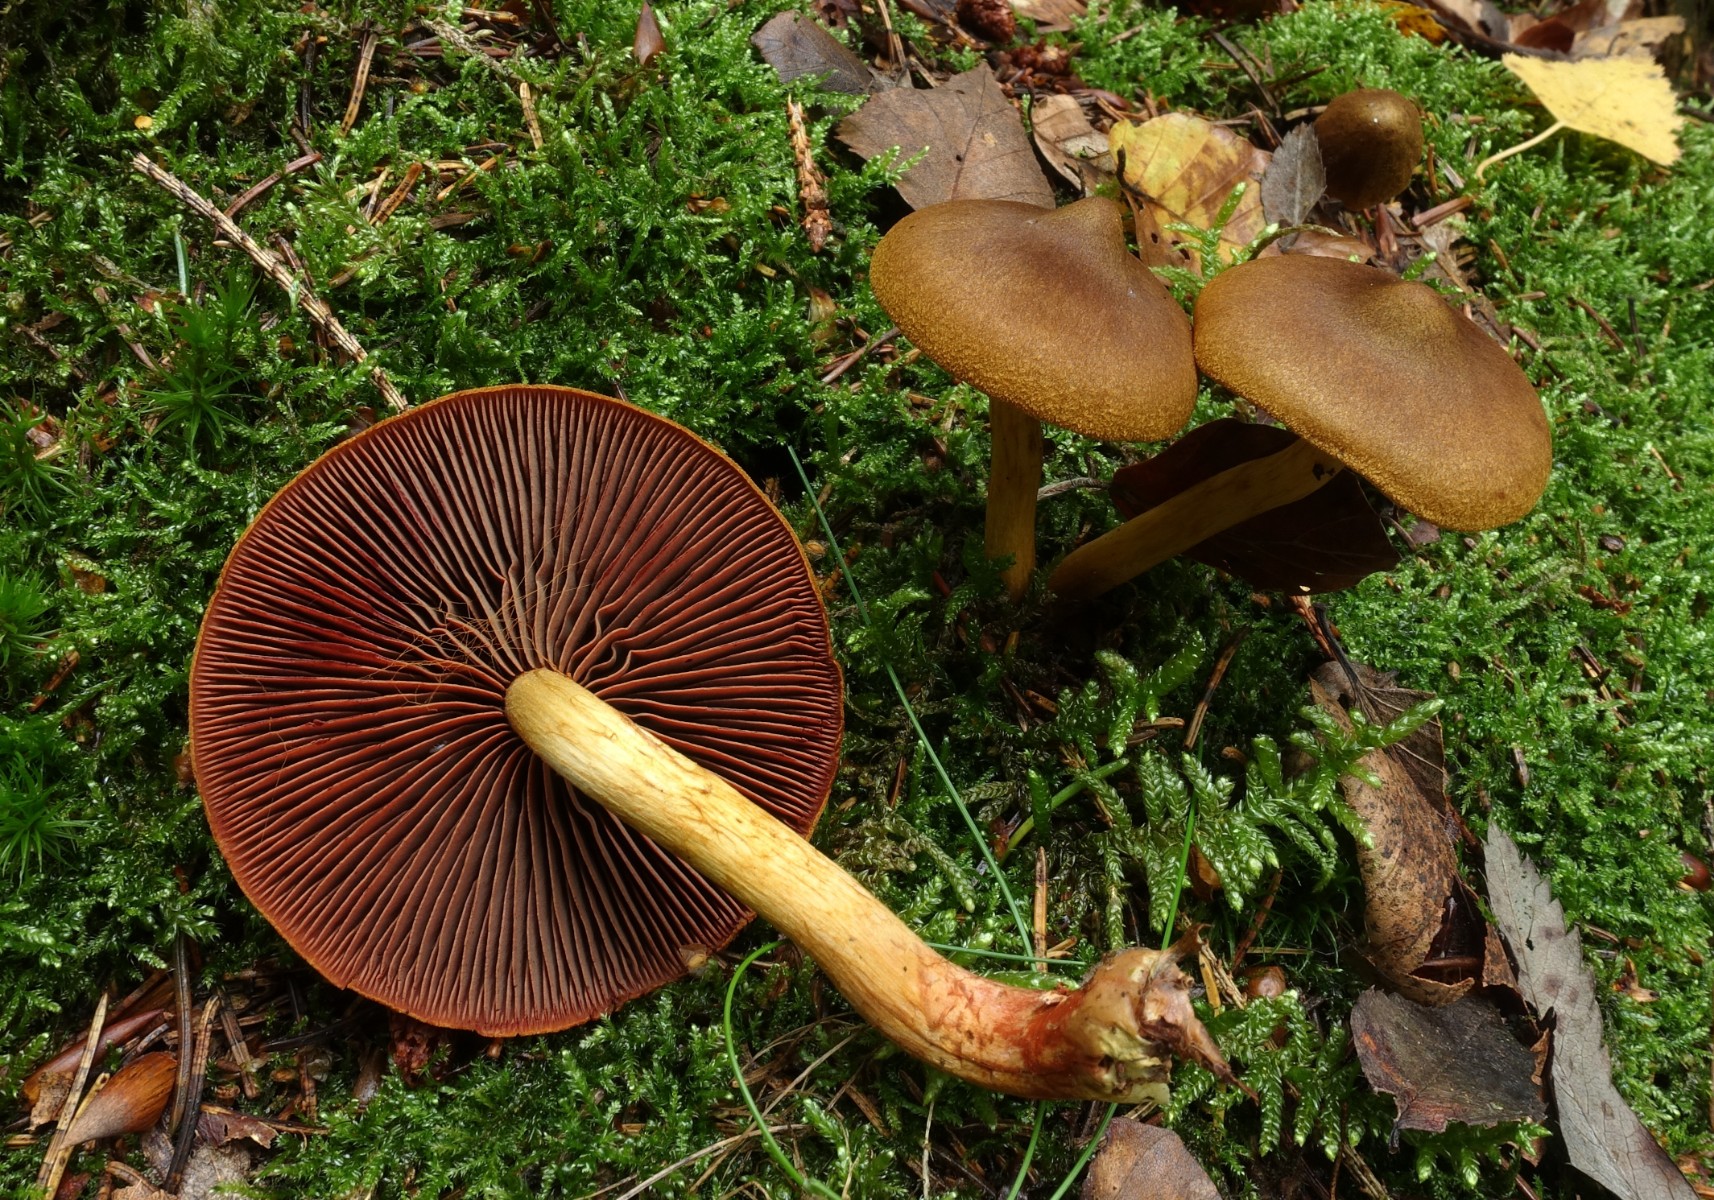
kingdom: Fungi
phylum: Basidiomycota
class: Agaricomycetes
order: Agaricales
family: Cortinariaceae
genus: Cortinarius
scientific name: Cortinarius
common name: cinnoberbladet slørhat
